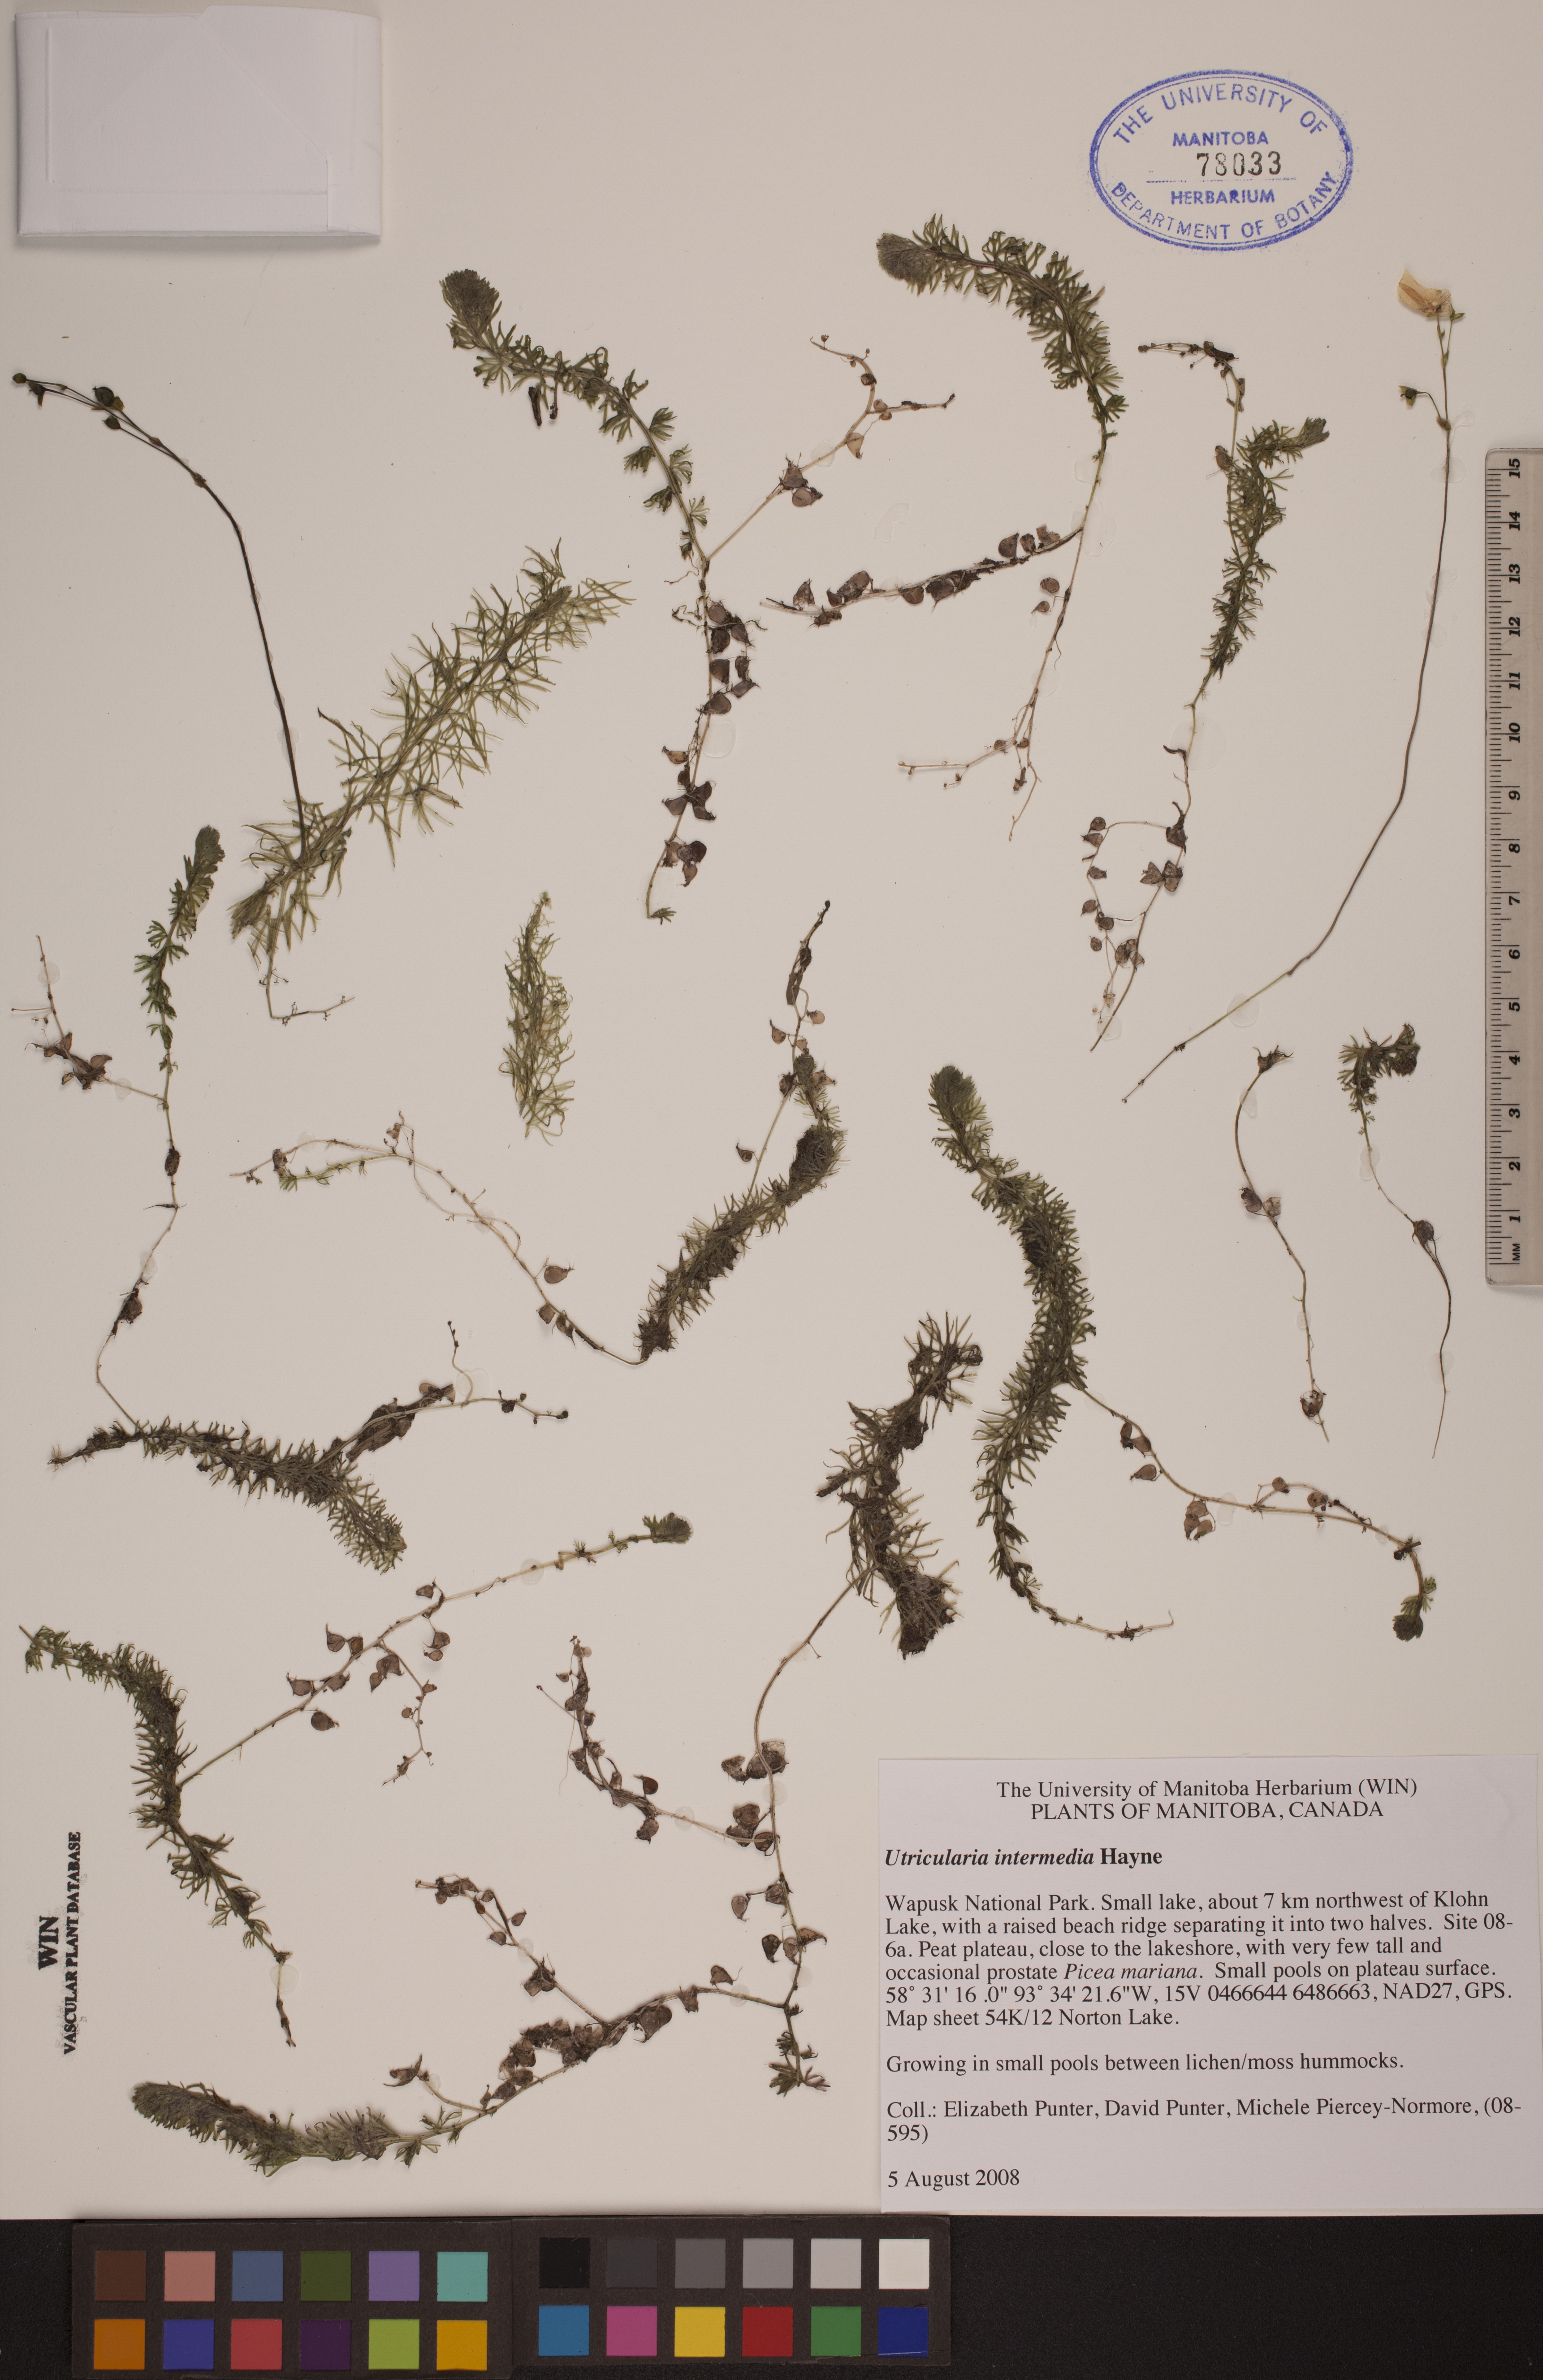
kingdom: Plantae
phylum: Tracheophyta
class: Magnoliopsida
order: Lamiales
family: Lentibulariaceae
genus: Utricularia
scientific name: Utricularia intermedia
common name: Intermediate bladderwort
